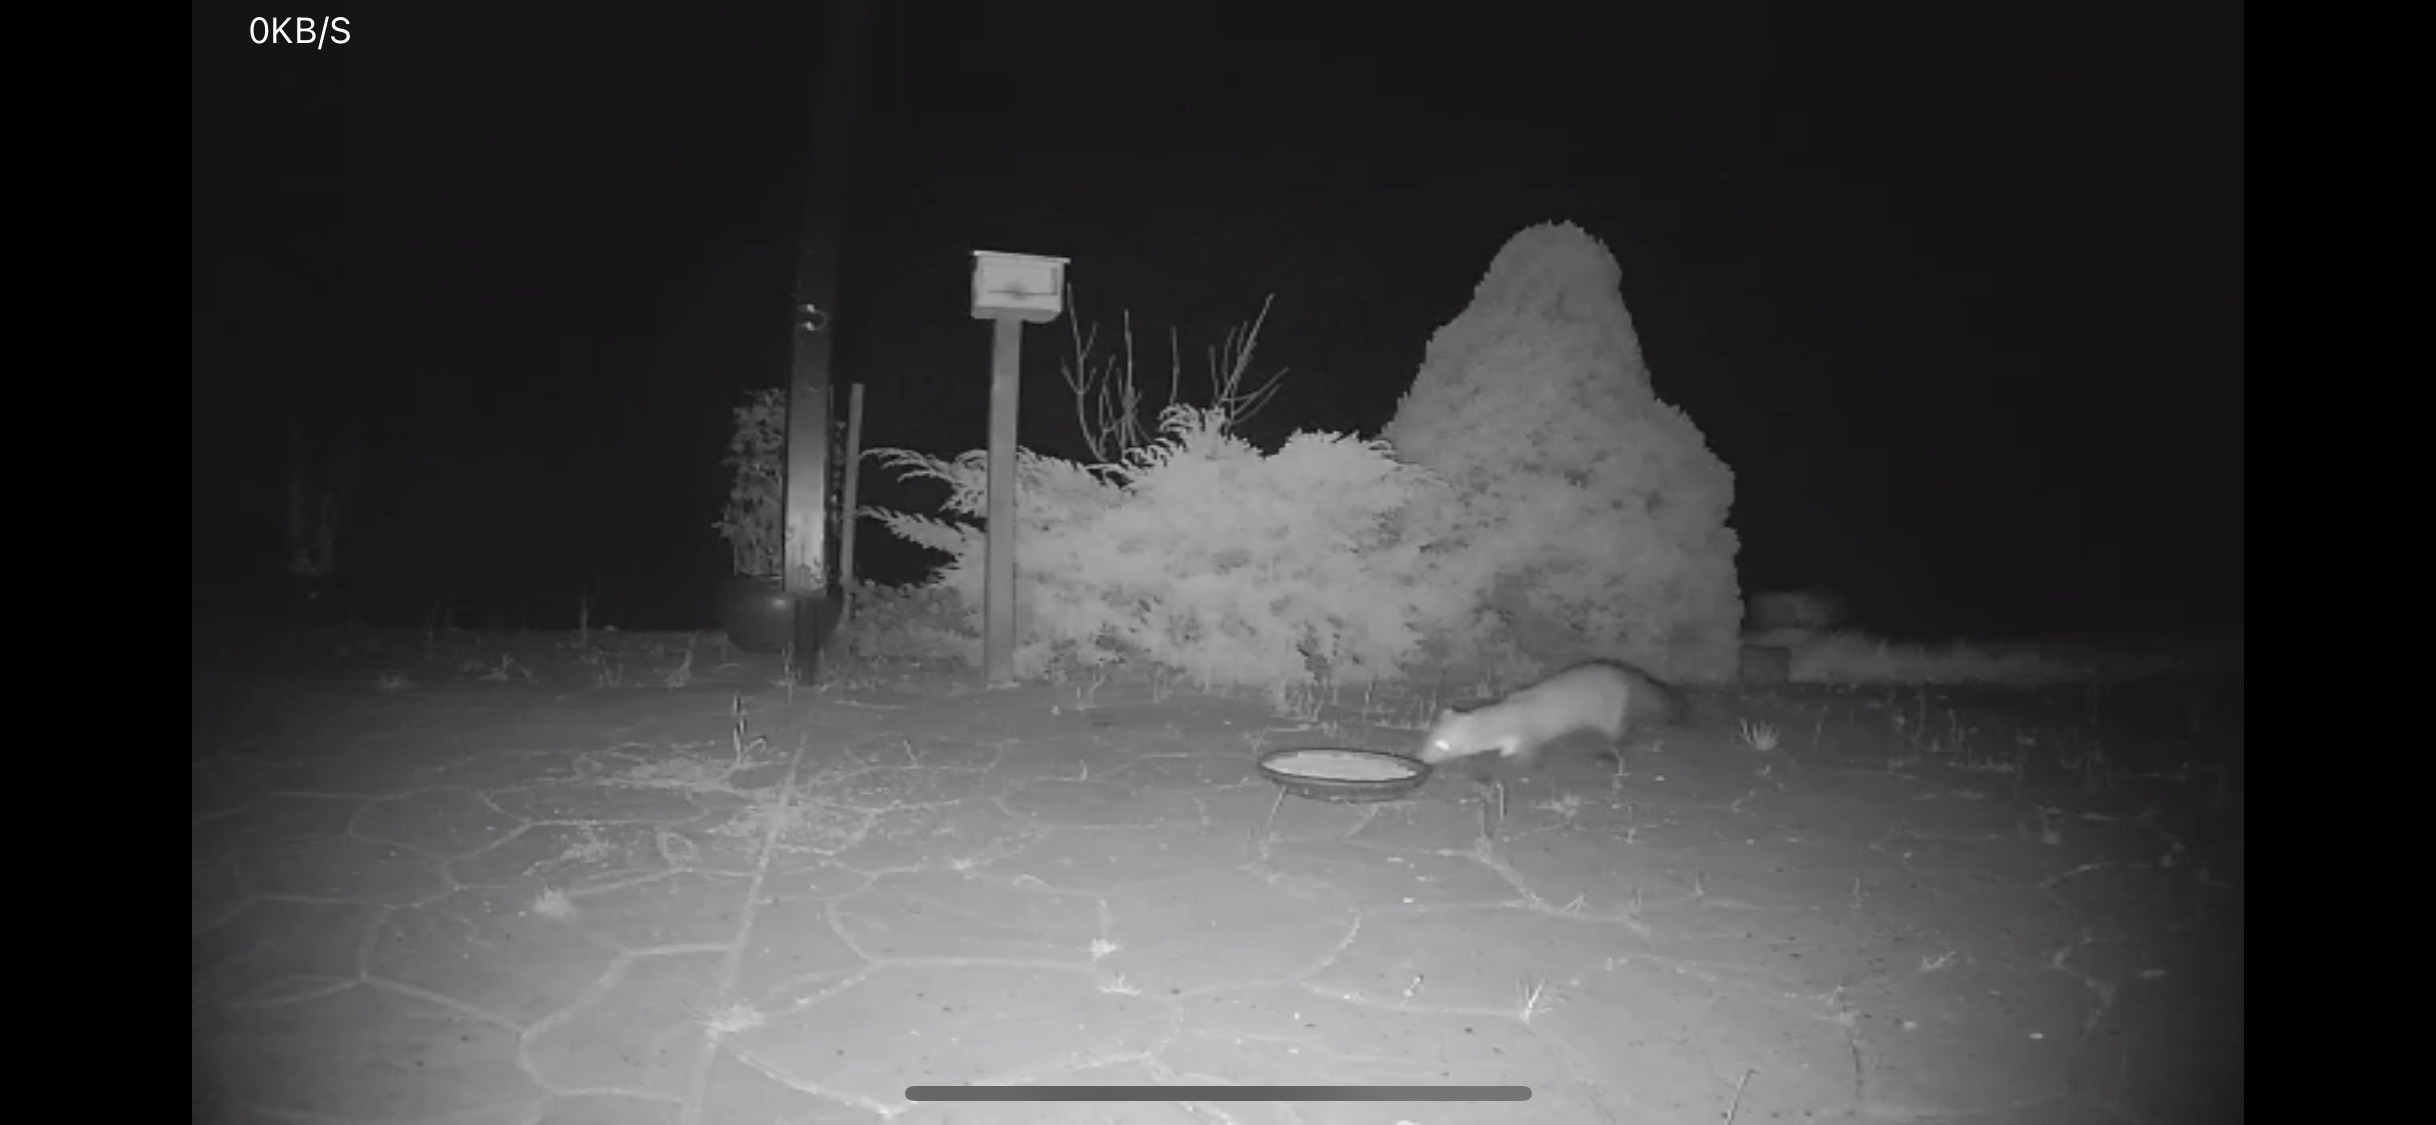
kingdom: Animalia
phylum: Chordata
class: Mammalia
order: Carnivora
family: Mustelidae
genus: Martes
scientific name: Martes foina
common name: Husmår
